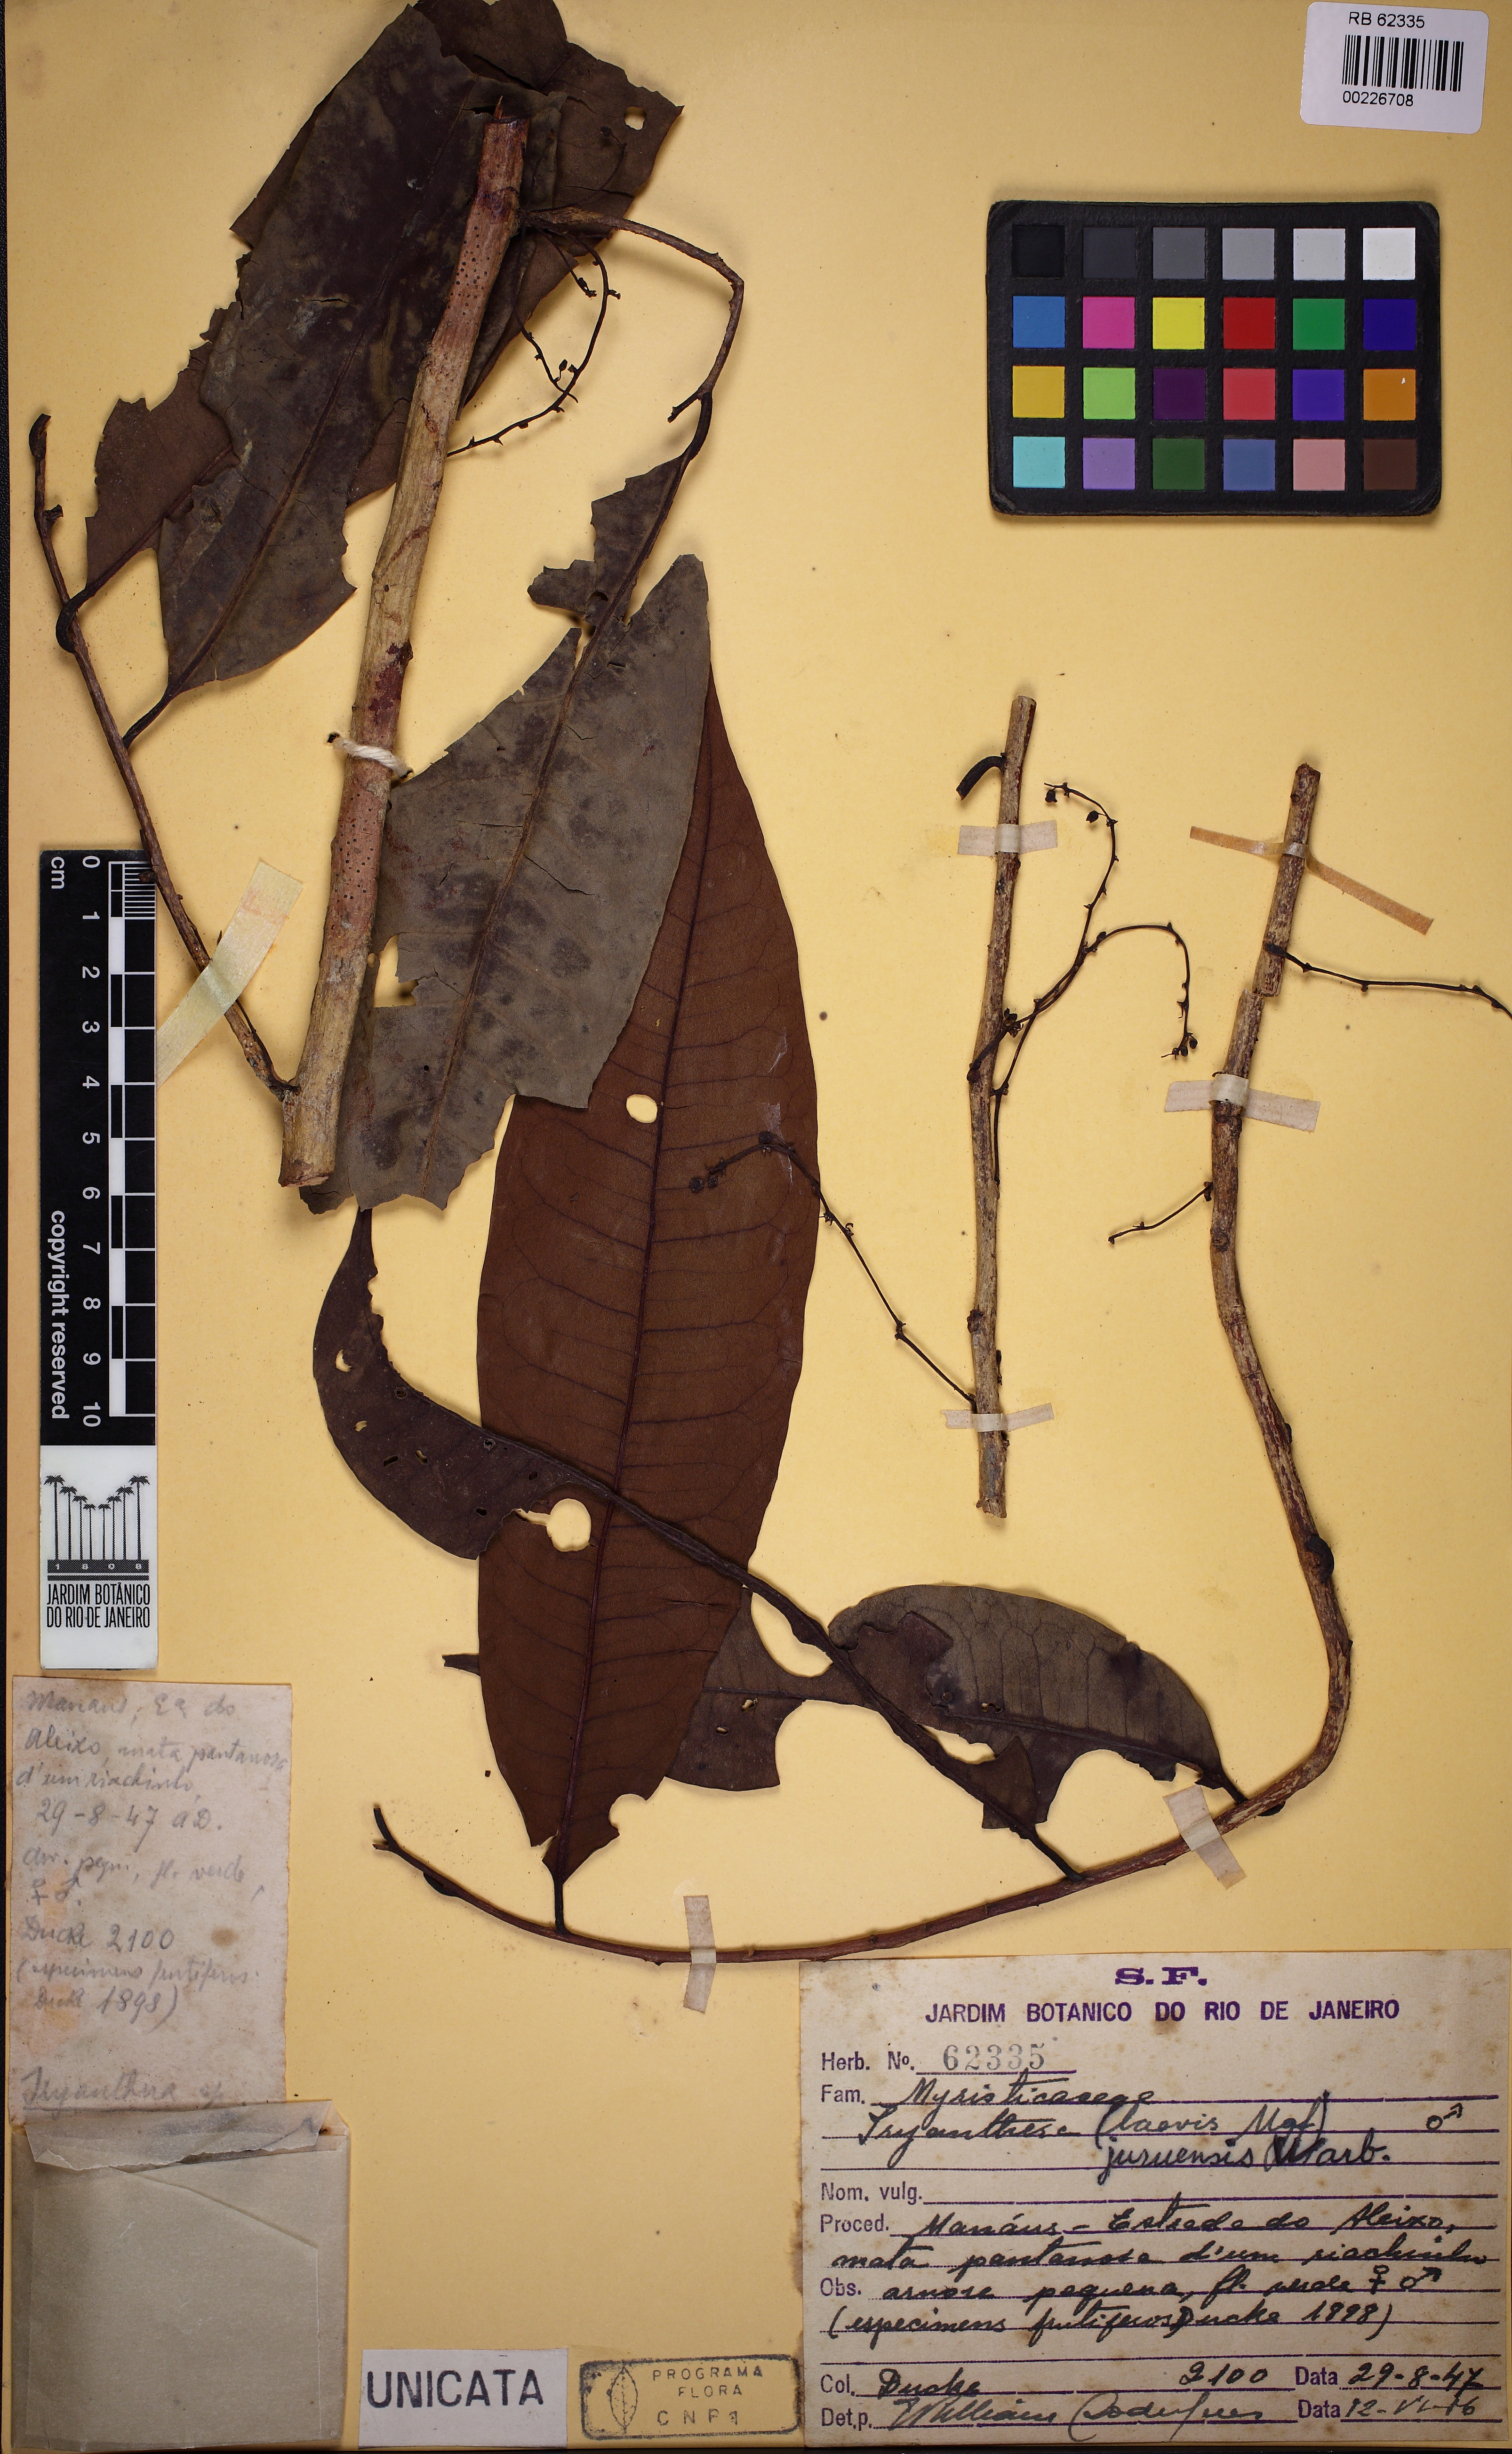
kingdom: Plantae
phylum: Tracheophyta
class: Magnoliopsida
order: Magnoliales
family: Myristicaceae
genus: Iryanthera
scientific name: Iryanthera juruensis
